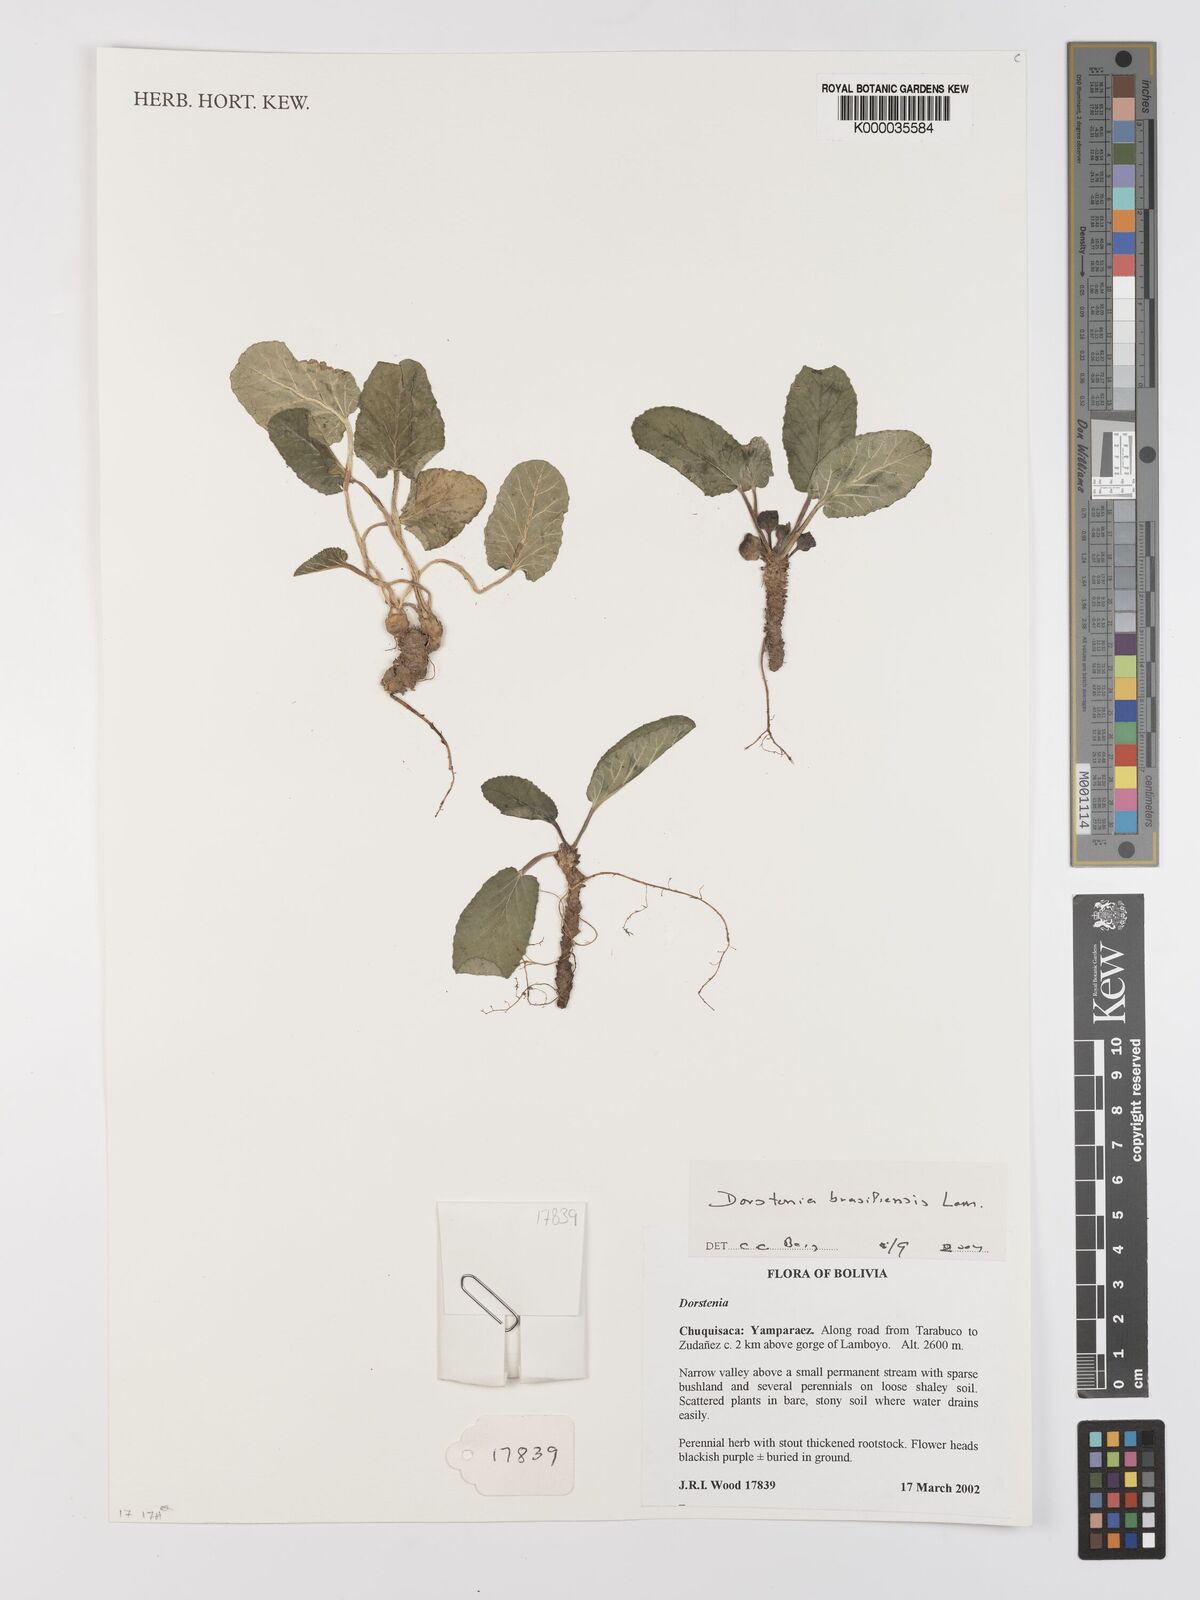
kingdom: Plantae
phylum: Tracheophyta
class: Magnoliopsida
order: Rosales
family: Moraceae
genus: Dorstenia
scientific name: Dorstenia brasiliensis
